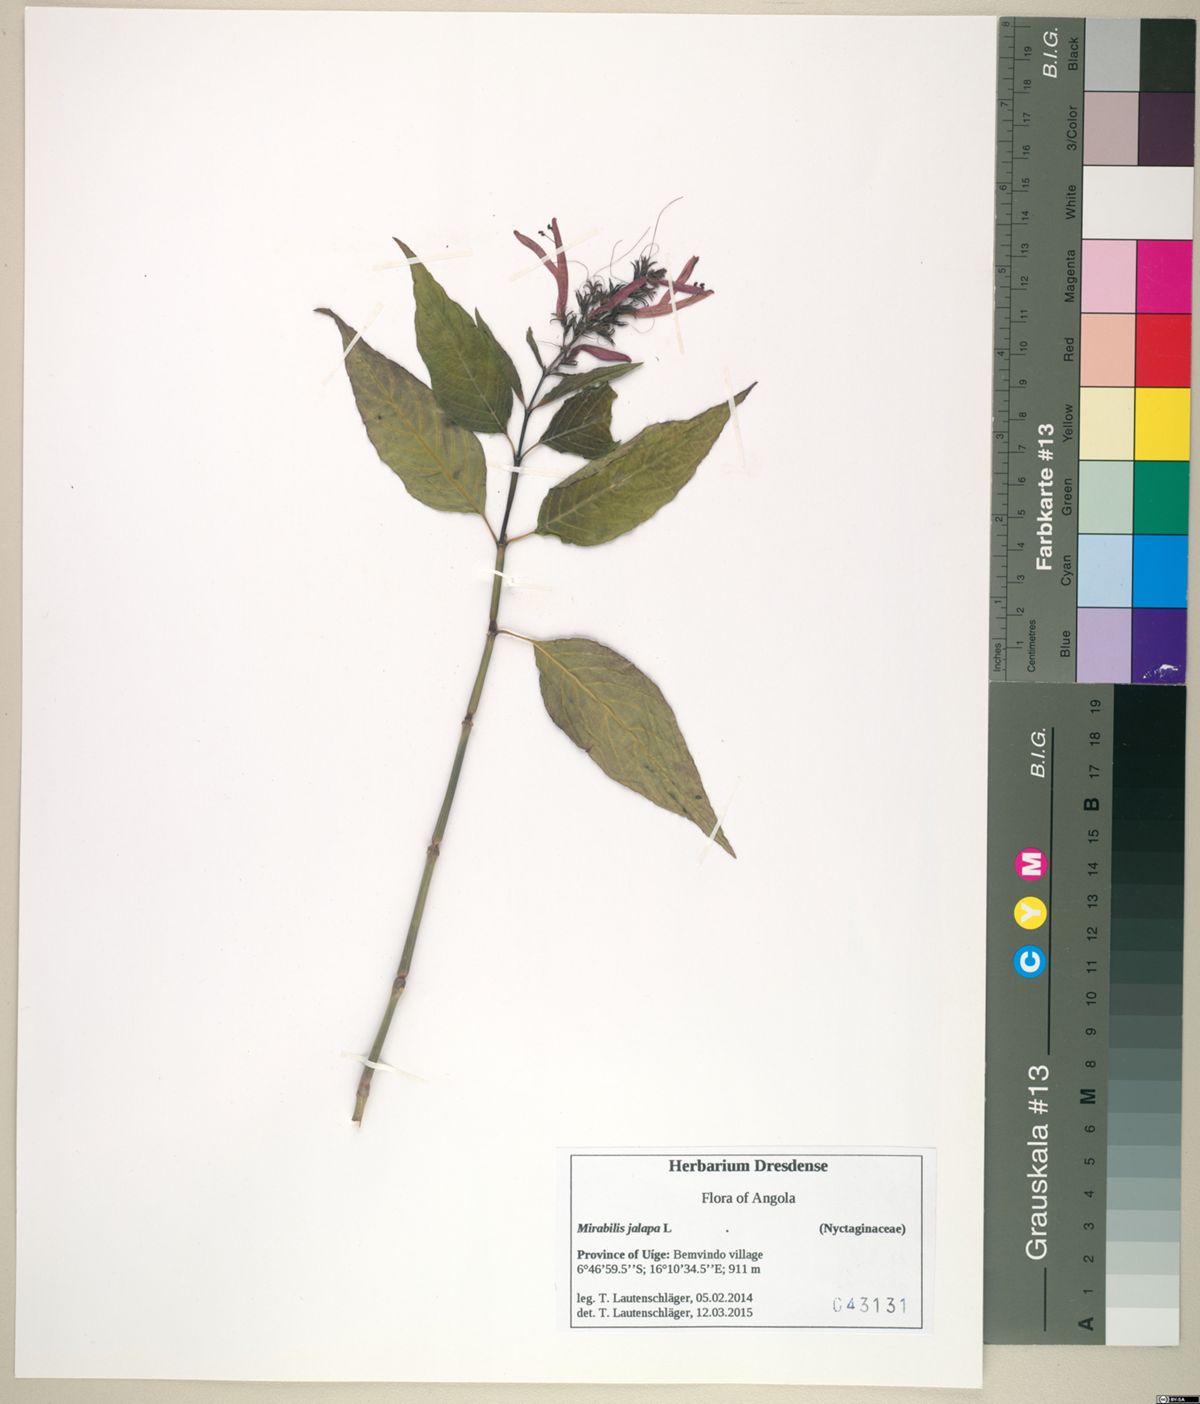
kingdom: Plantae
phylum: Tracheophyta
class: Magnoliopsida
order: Caryophyllales
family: Nyctaginaceae
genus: Mirabilis
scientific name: Mirabilis jalapa
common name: Marvel-of-peru
